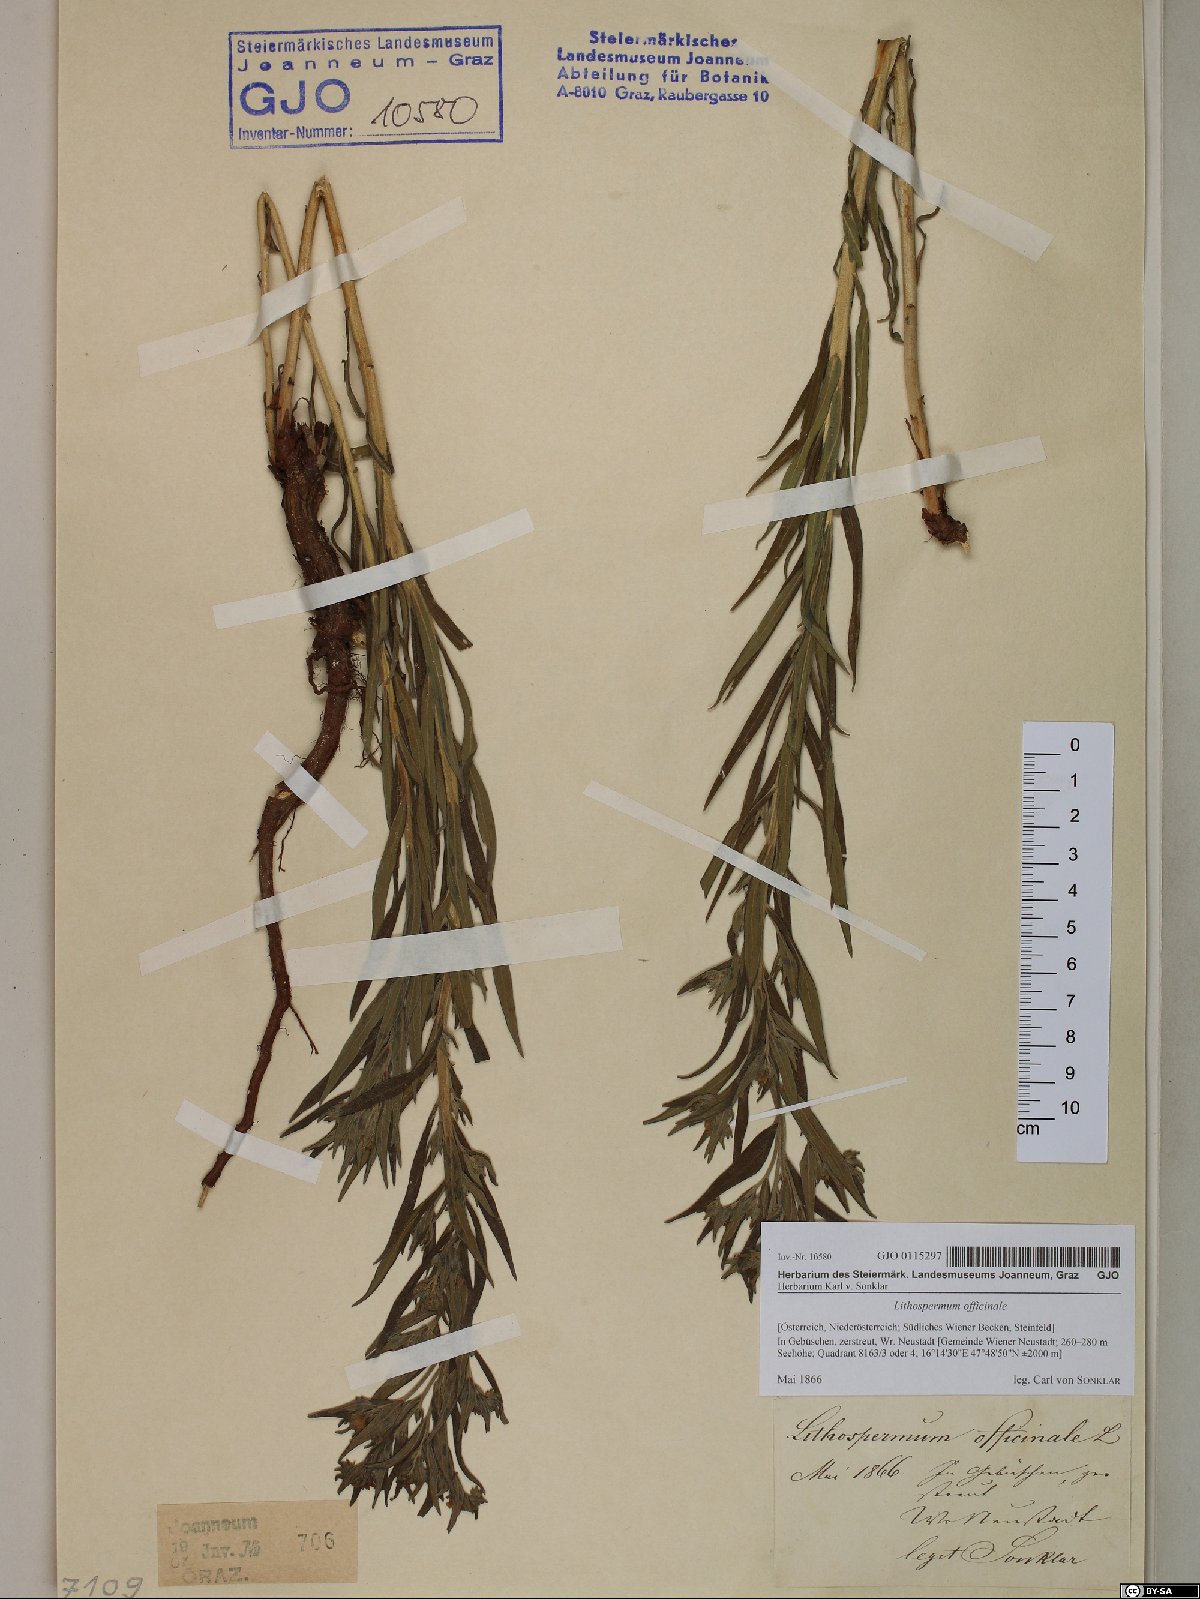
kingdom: Plantae
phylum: Tracheophyta
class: Magnoliopsida
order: Boraginales
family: Boraginaceae
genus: Lithospermum
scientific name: Lithospermum officinale
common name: Common gromwell
